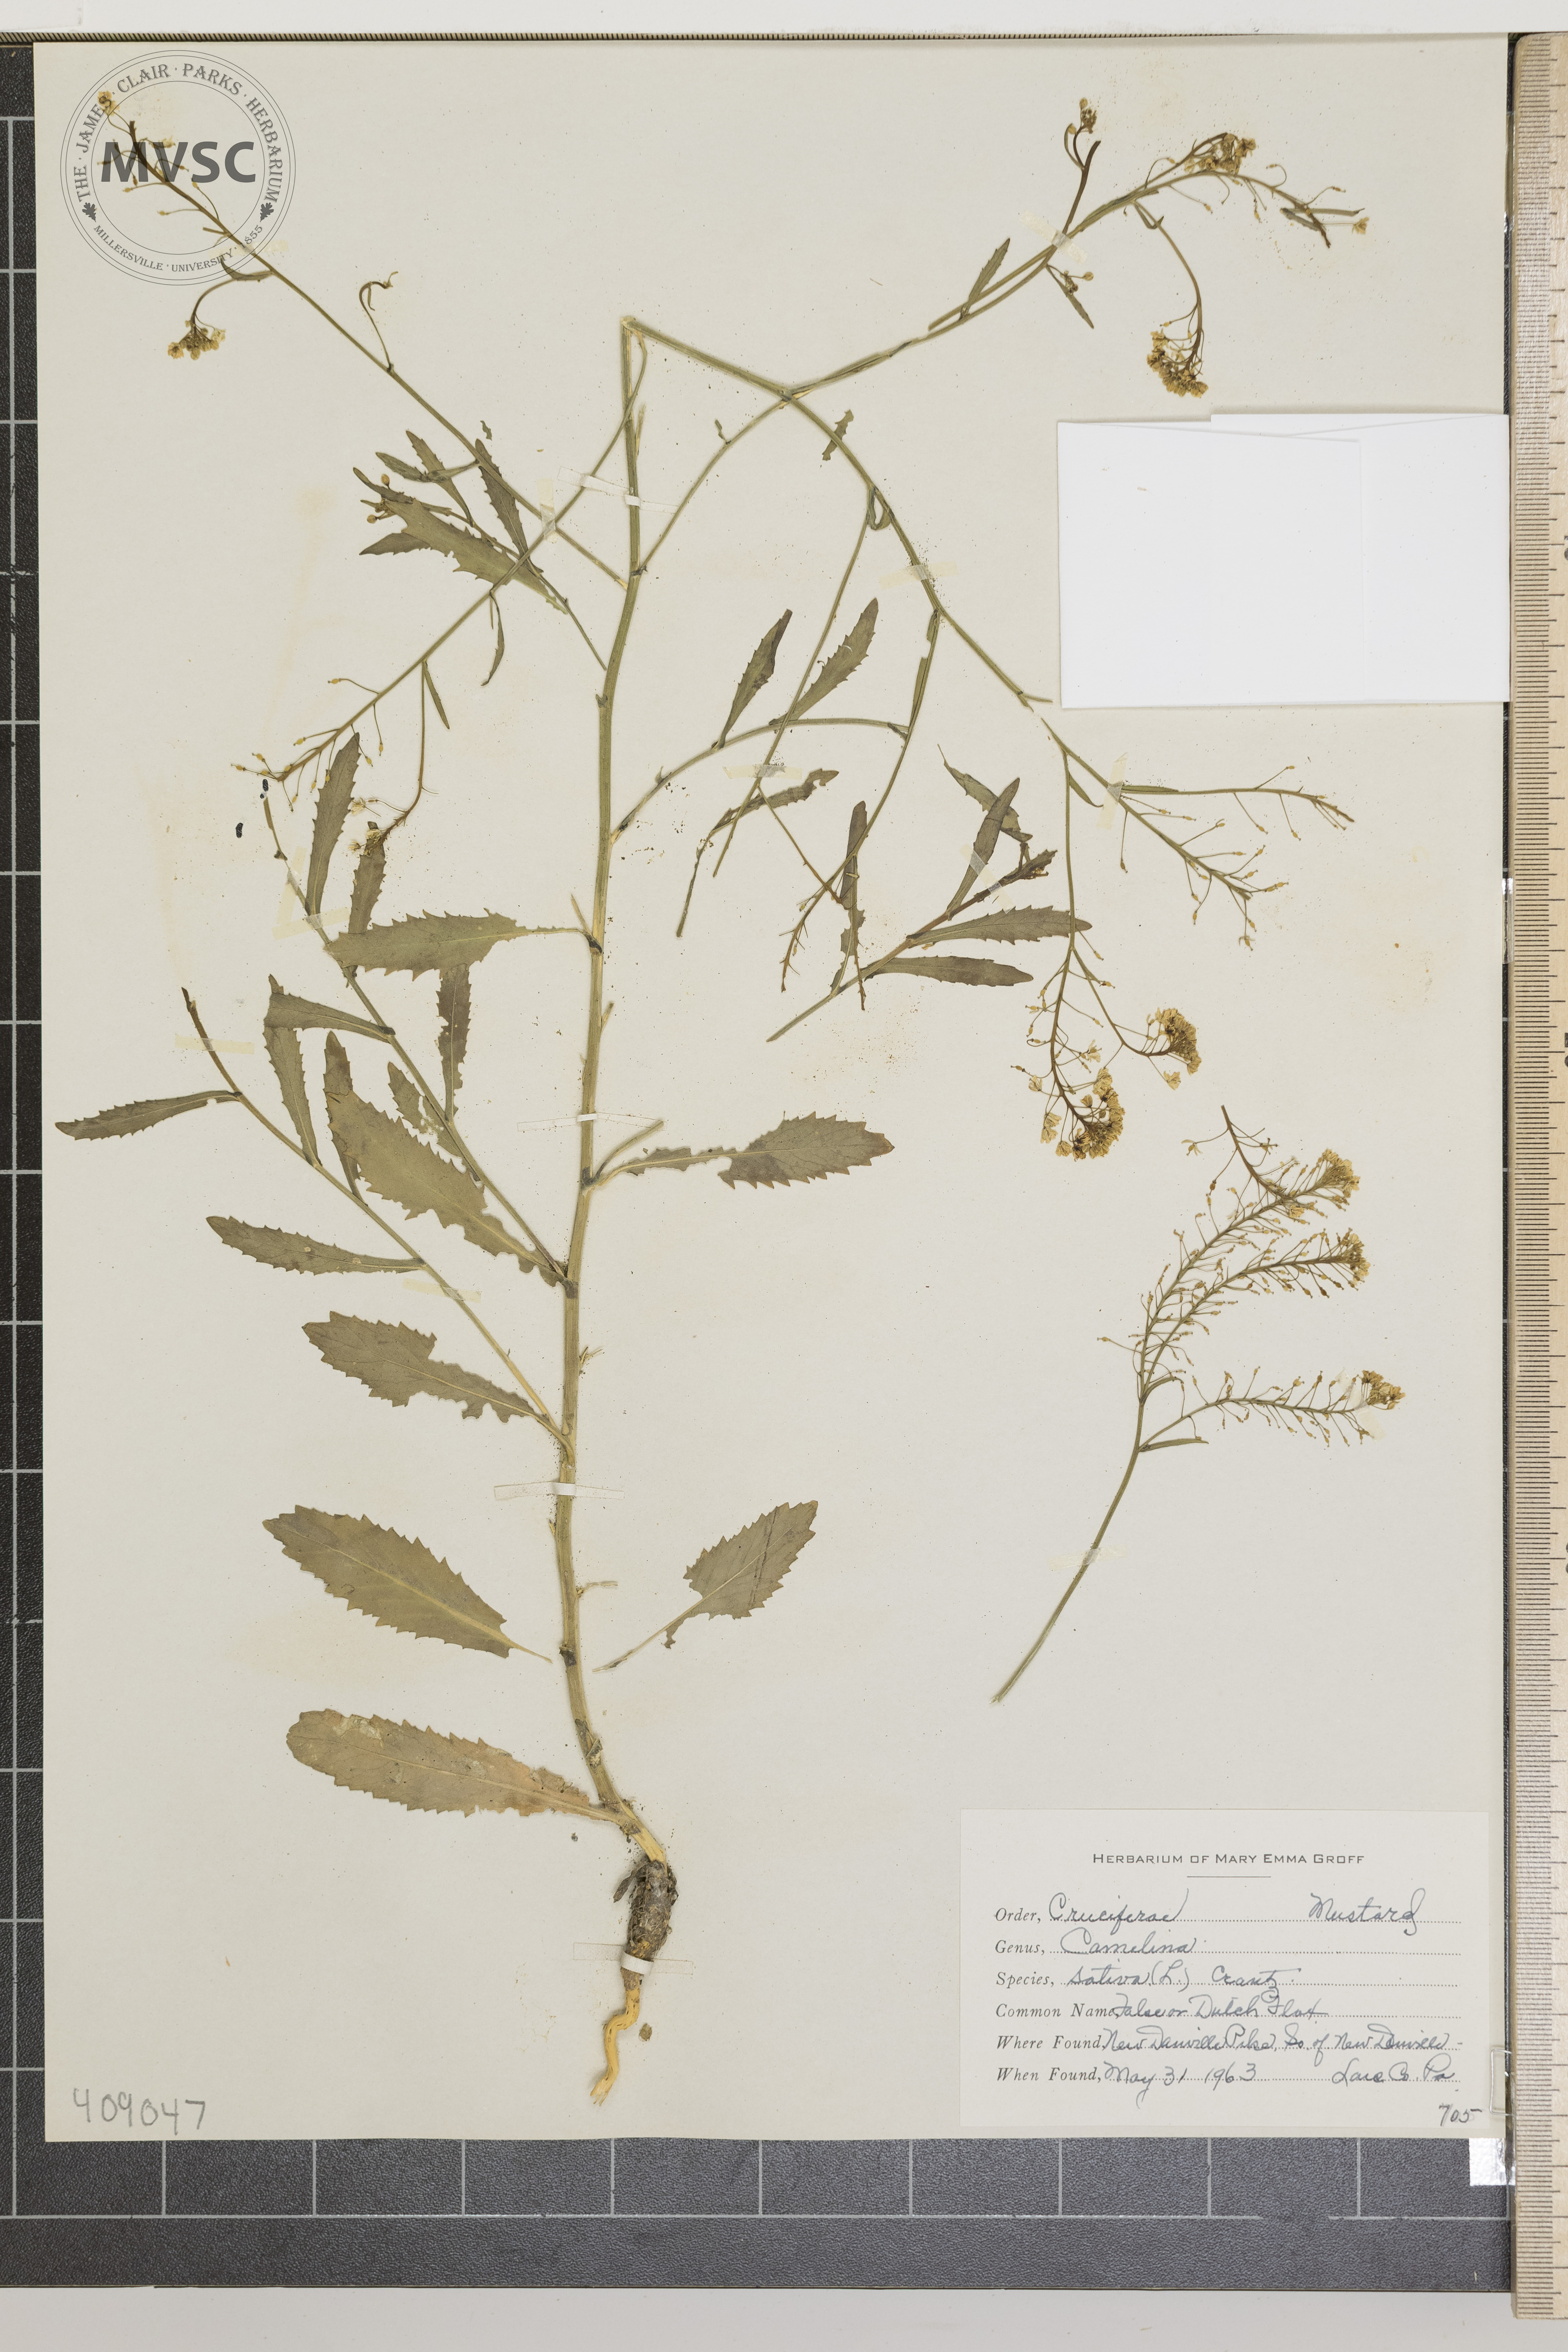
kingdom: Plantae
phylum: Tracheophyta
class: Magnoliopsida
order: Brassicales
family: Brassicaceae
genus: Camelina
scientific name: Camelina sativa
